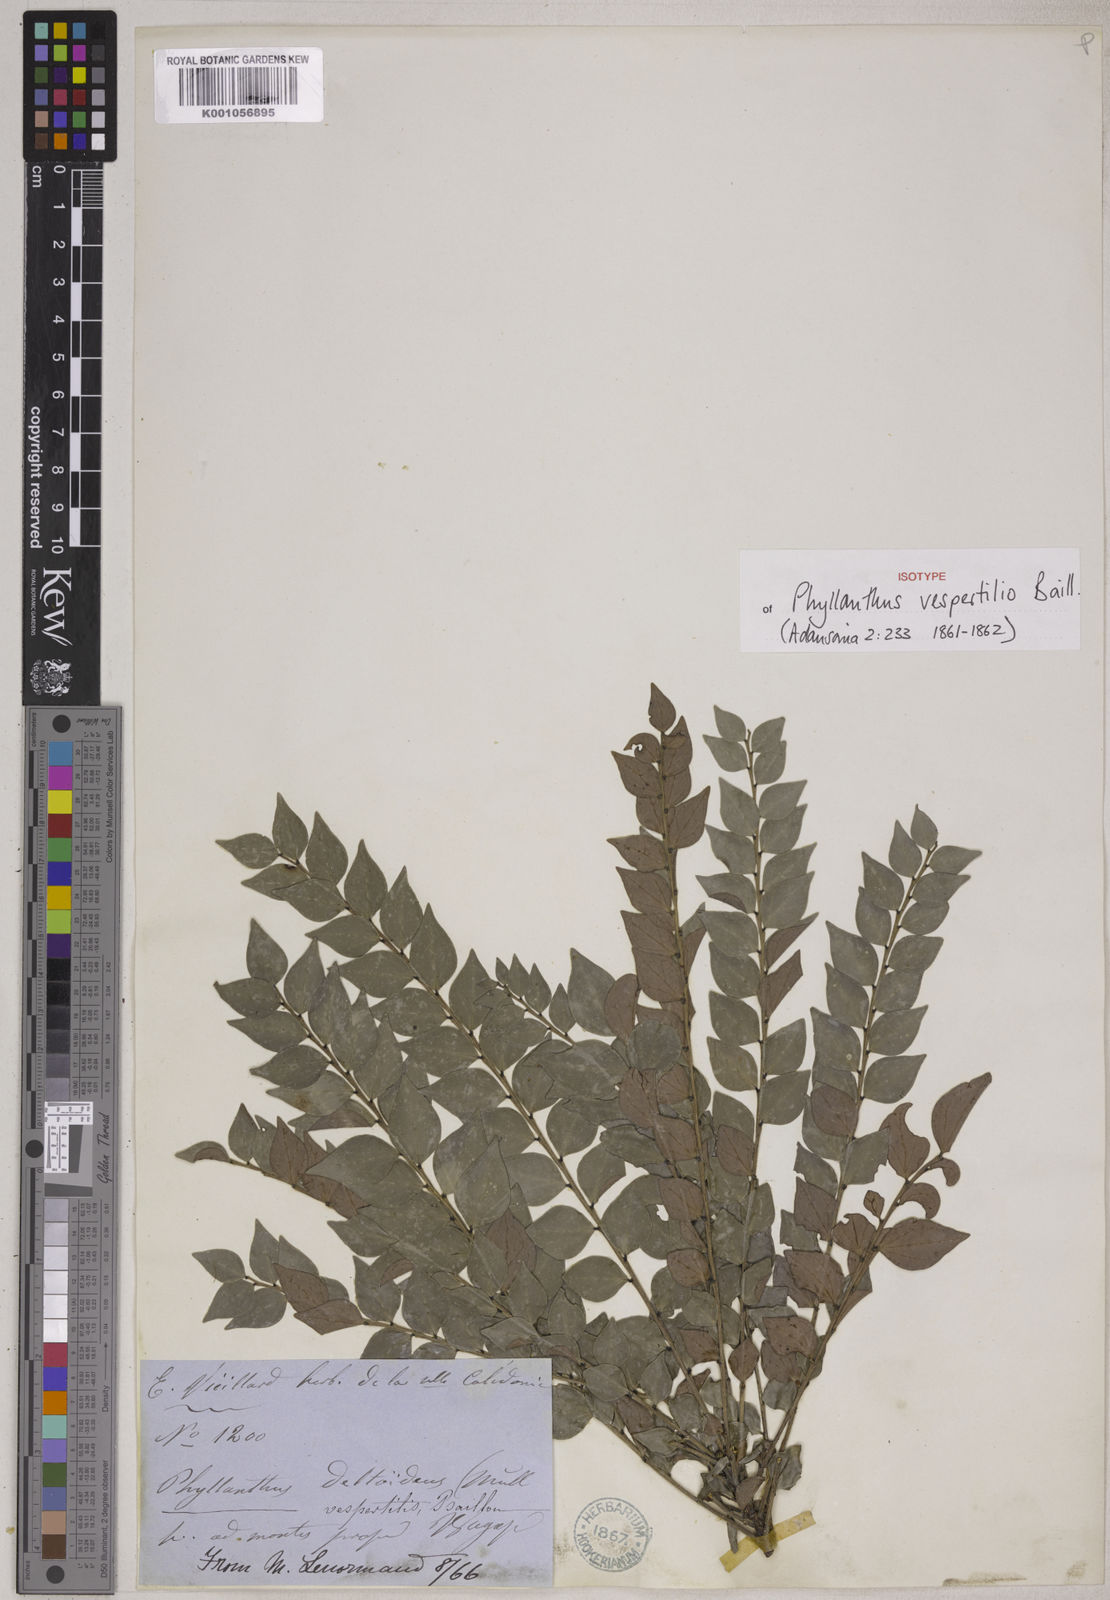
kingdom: Plantae
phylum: Tracheophyta
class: Magnoliopsida
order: Malpighiales
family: Phyllanthaceae
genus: Phyllanthus
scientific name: Phyllanthus vespertilio
